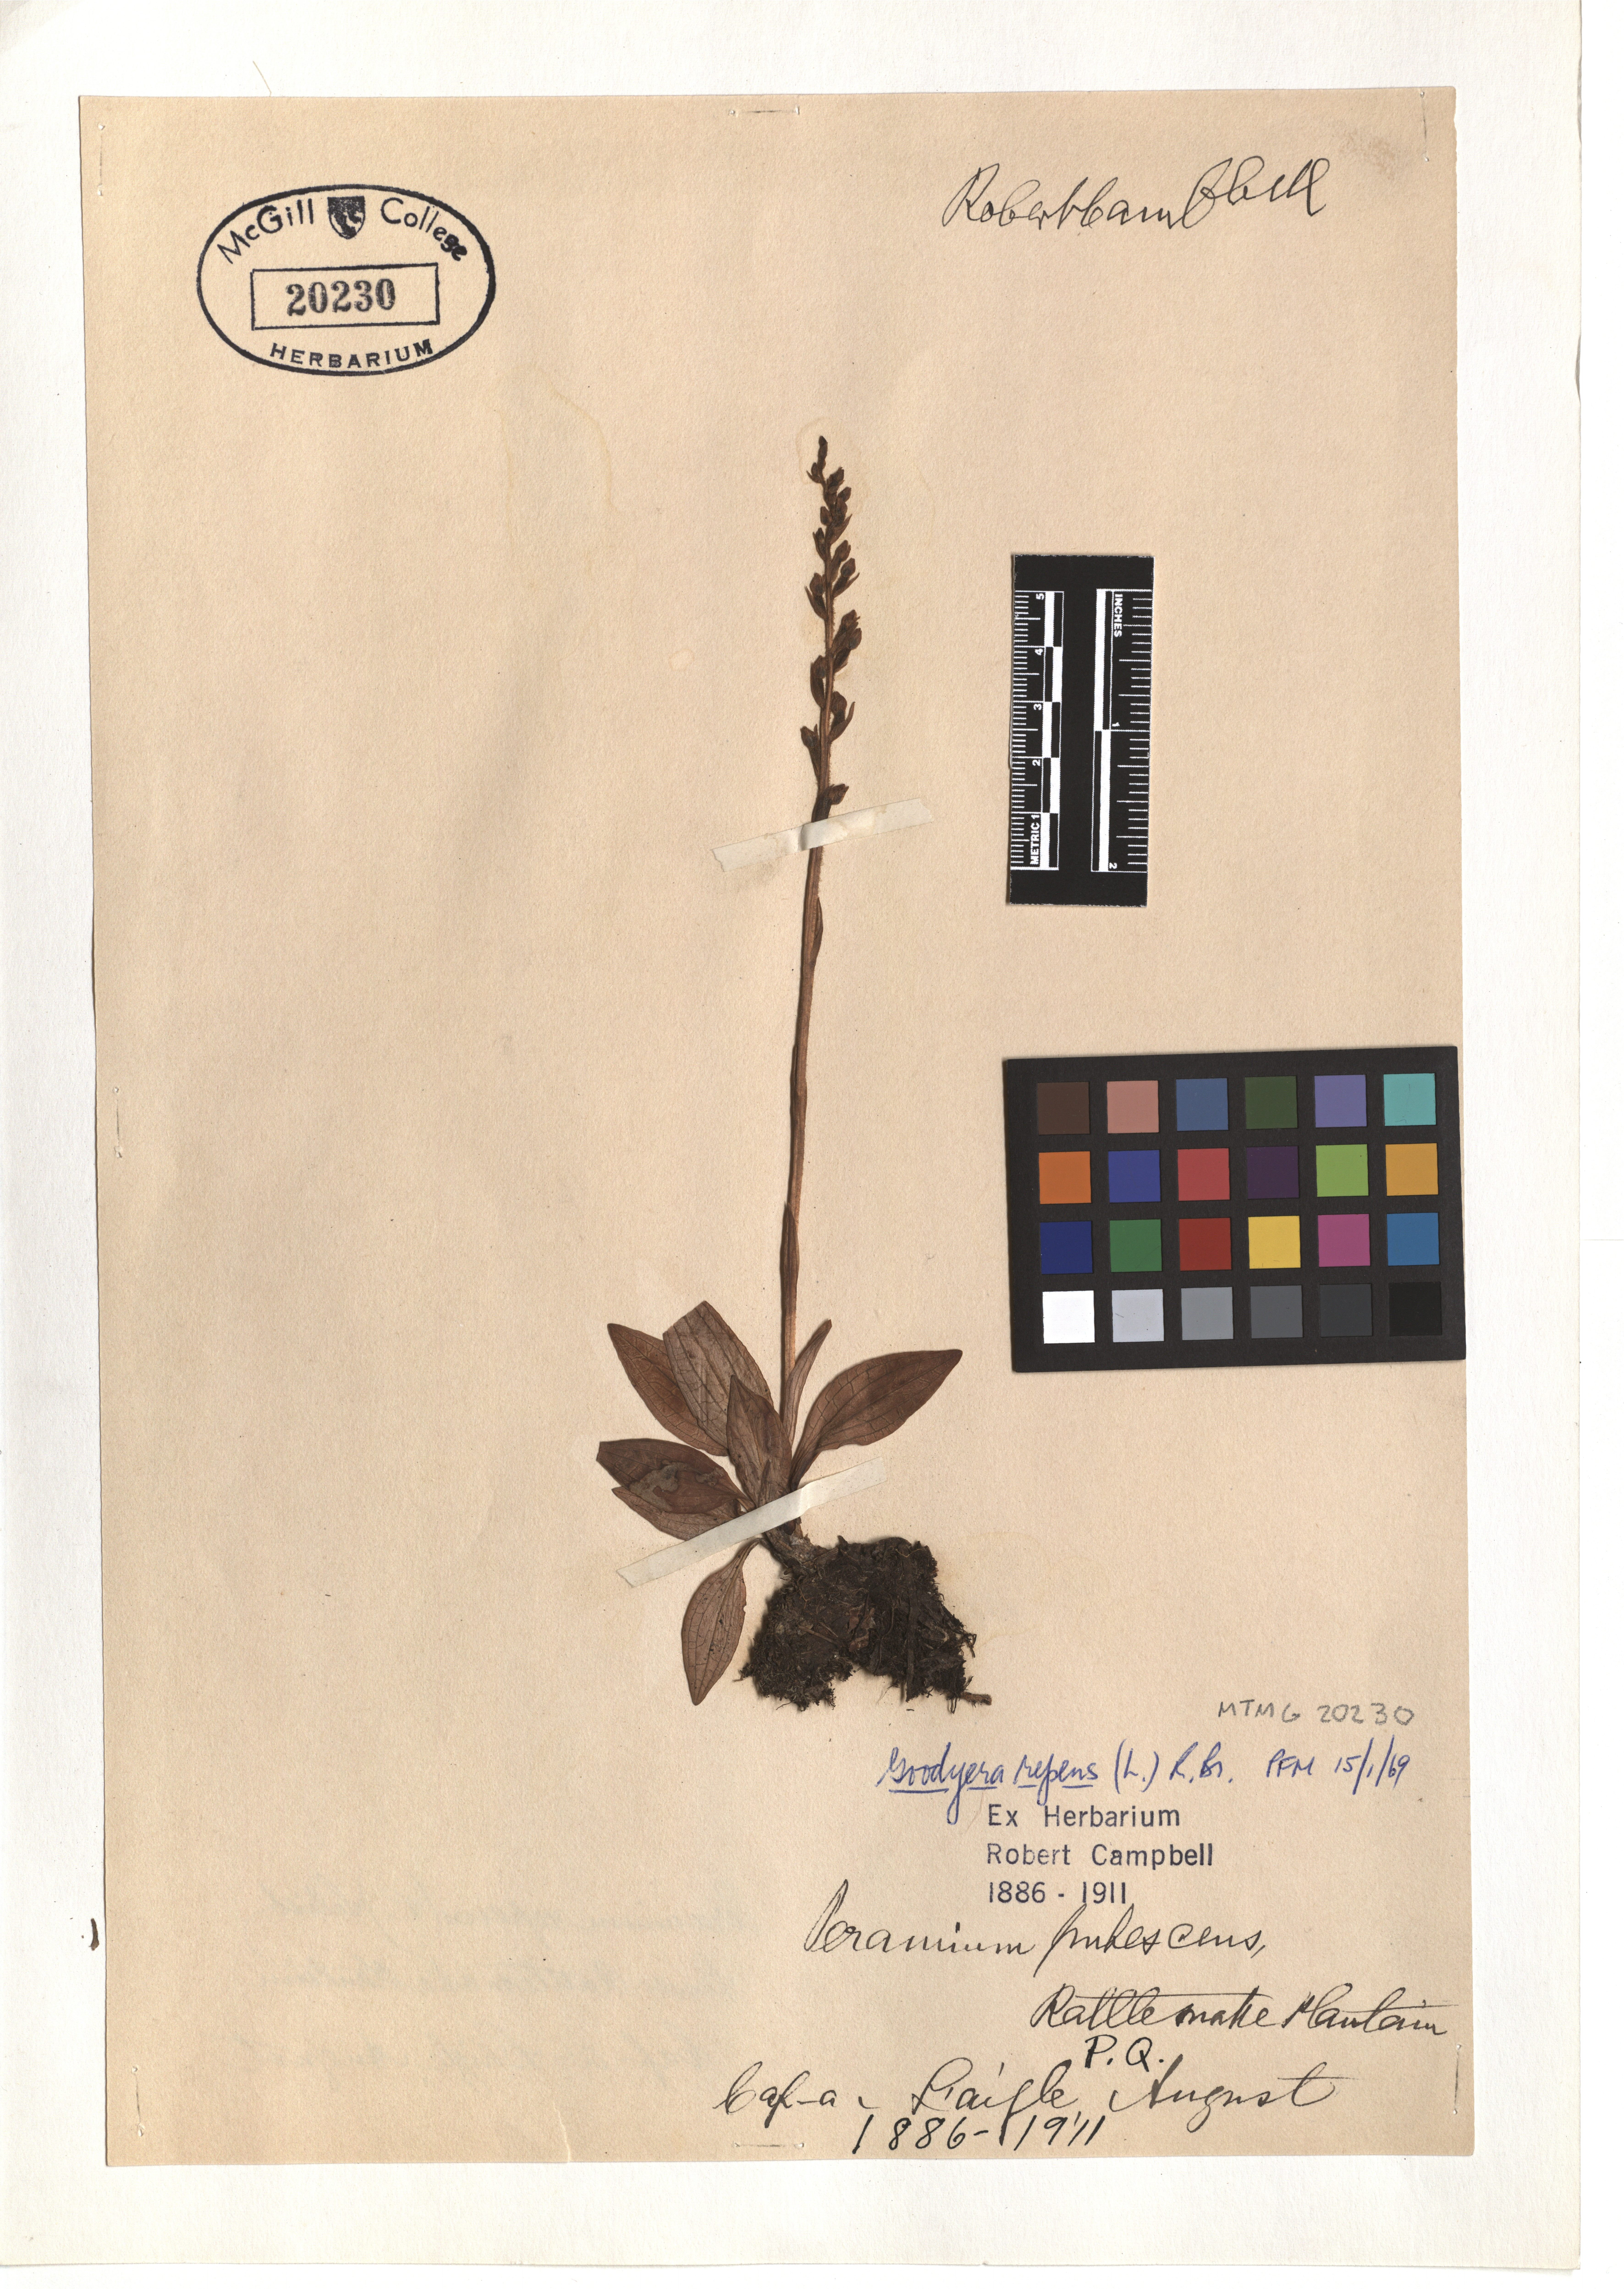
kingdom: Plantae
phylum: Tracheophyta
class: Liliopsida
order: Asparagales
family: Orchidaceae
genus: Goodyera
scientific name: Goodyera repens
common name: Creeping lady's-tresses
